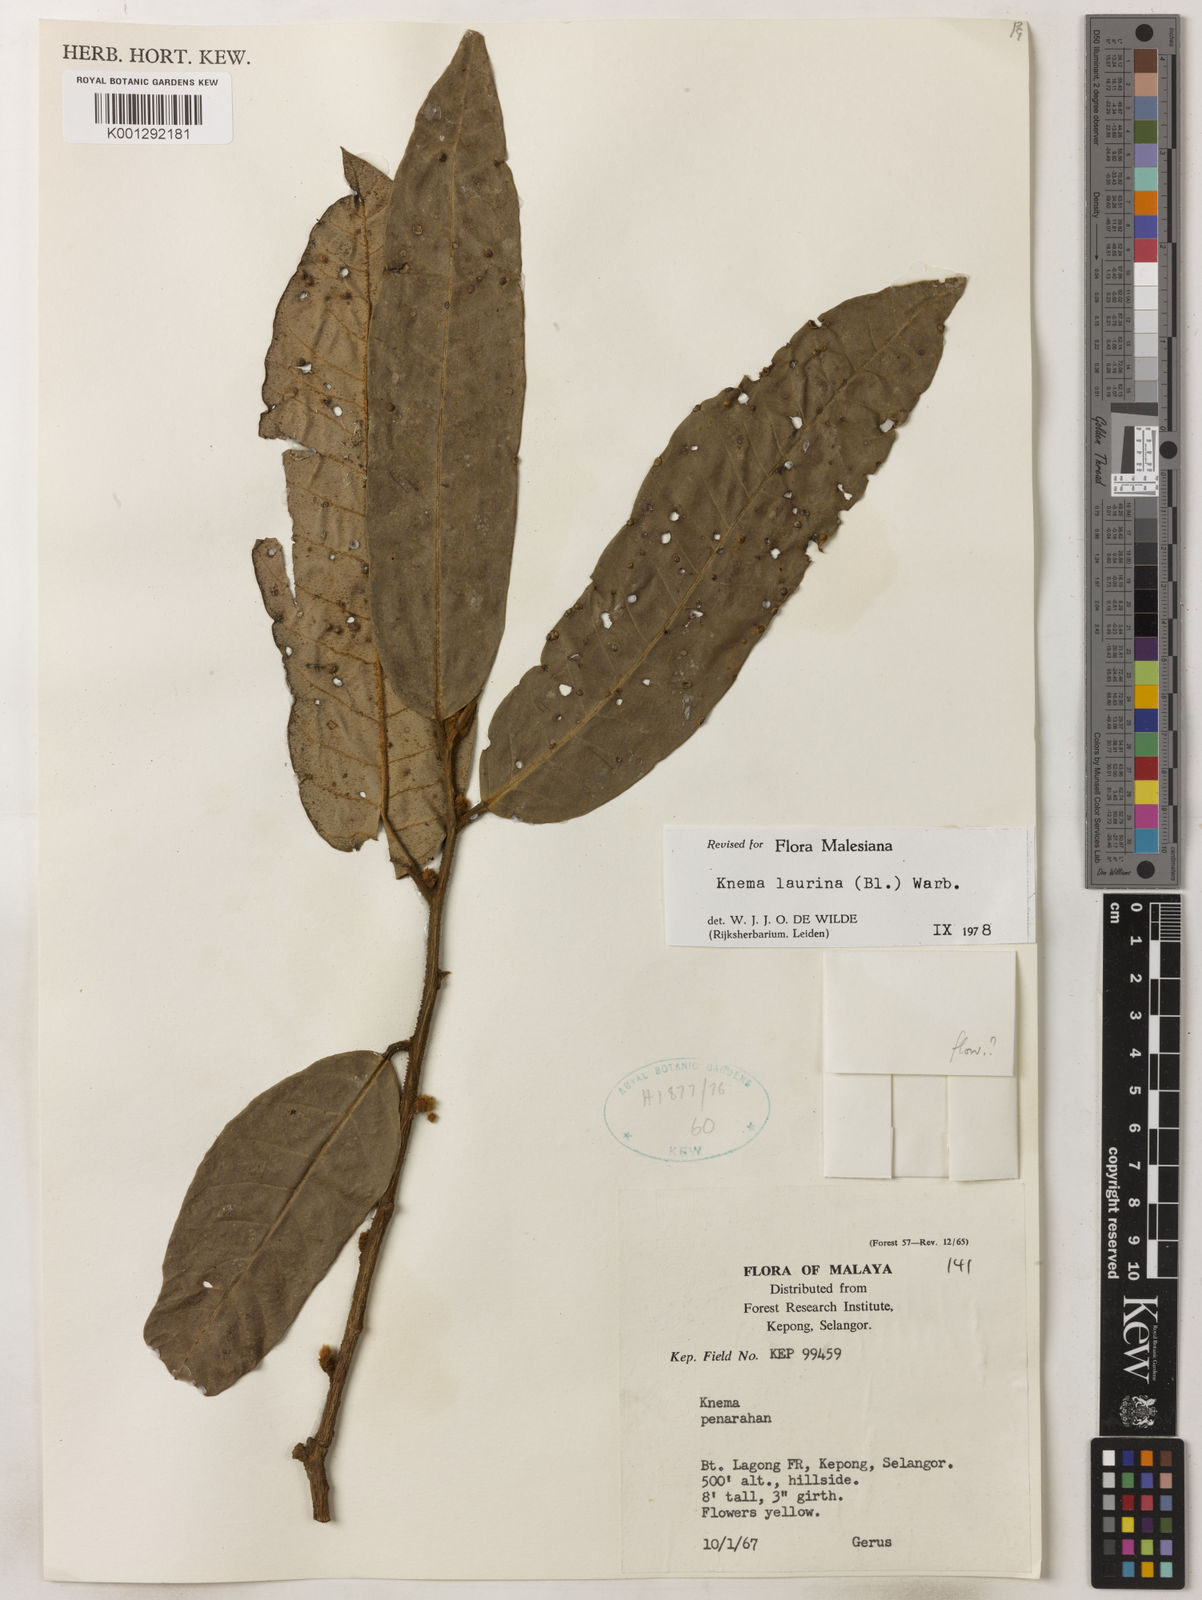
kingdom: Plantae
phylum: Tracheophyta
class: Magnoliopsida
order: Magnoliales
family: Myristicaceae
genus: Knema
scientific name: Knema laurina
